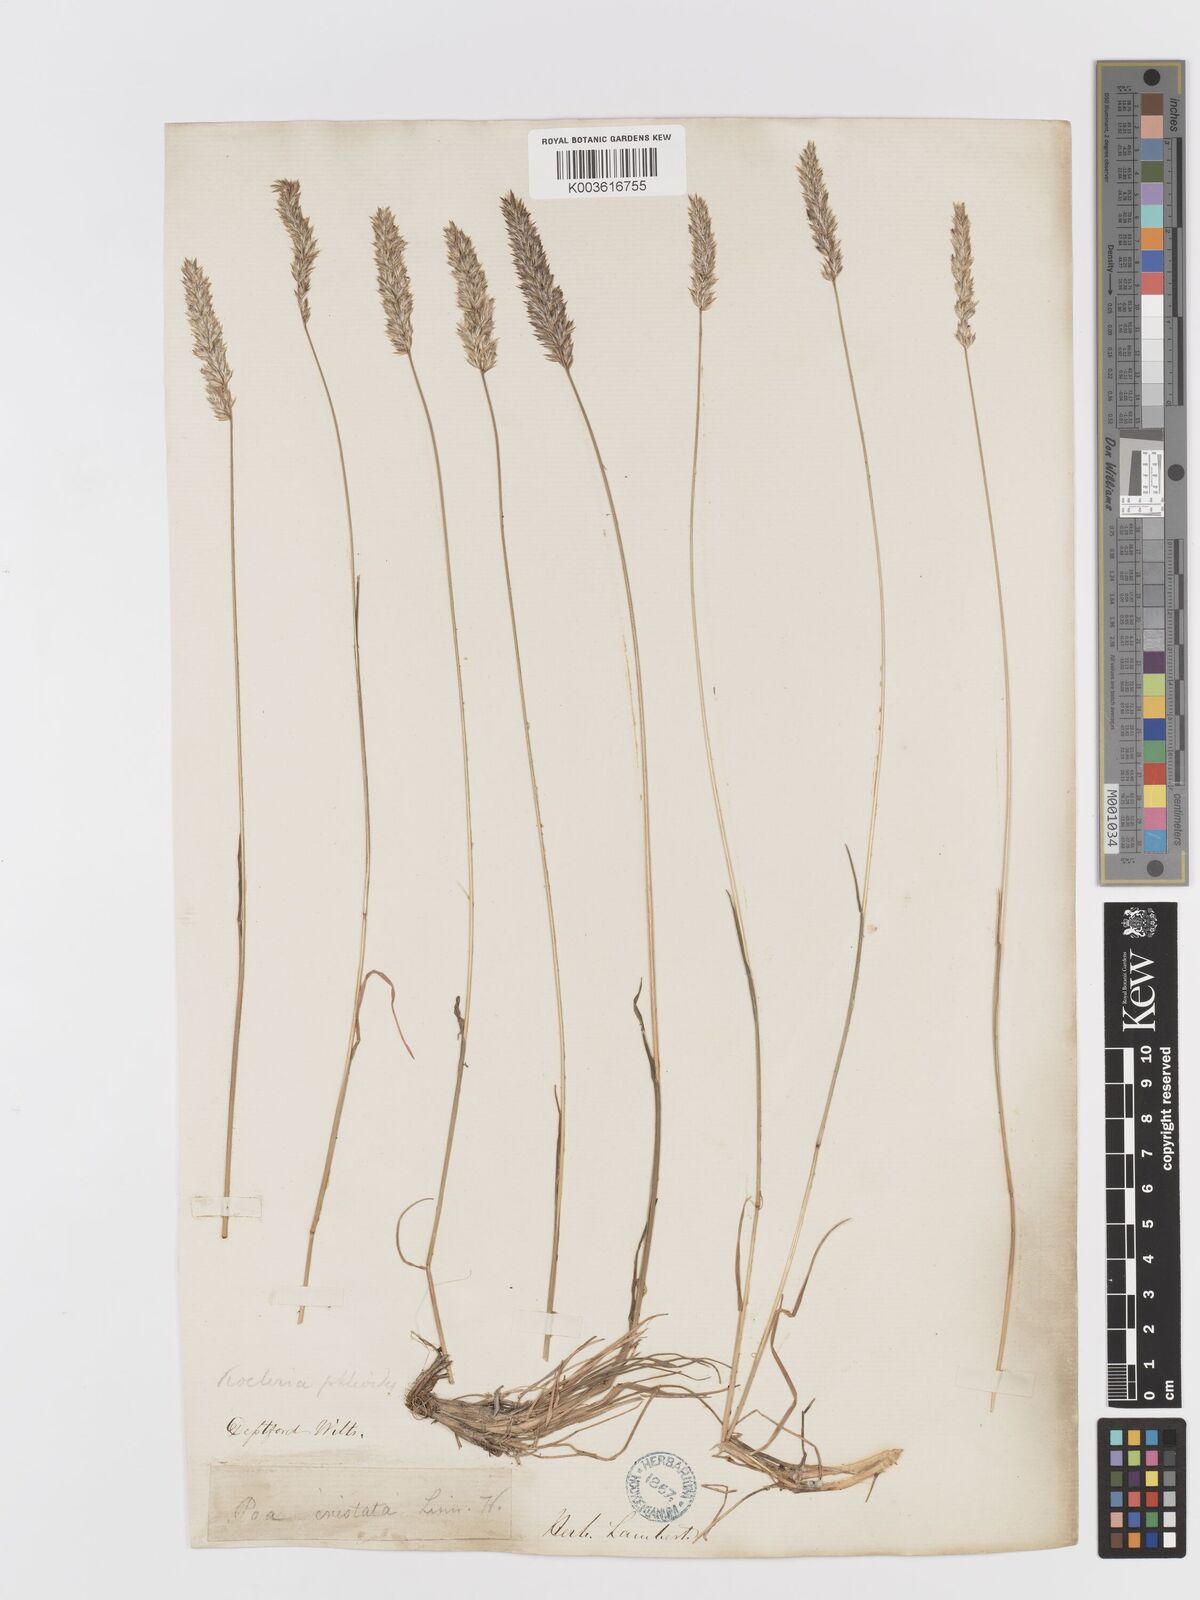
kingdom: Plantae
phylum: Tracheophyta
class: Liliopsida
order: Poales
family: Poaceae
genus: Koeleria
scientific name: Koeleria
